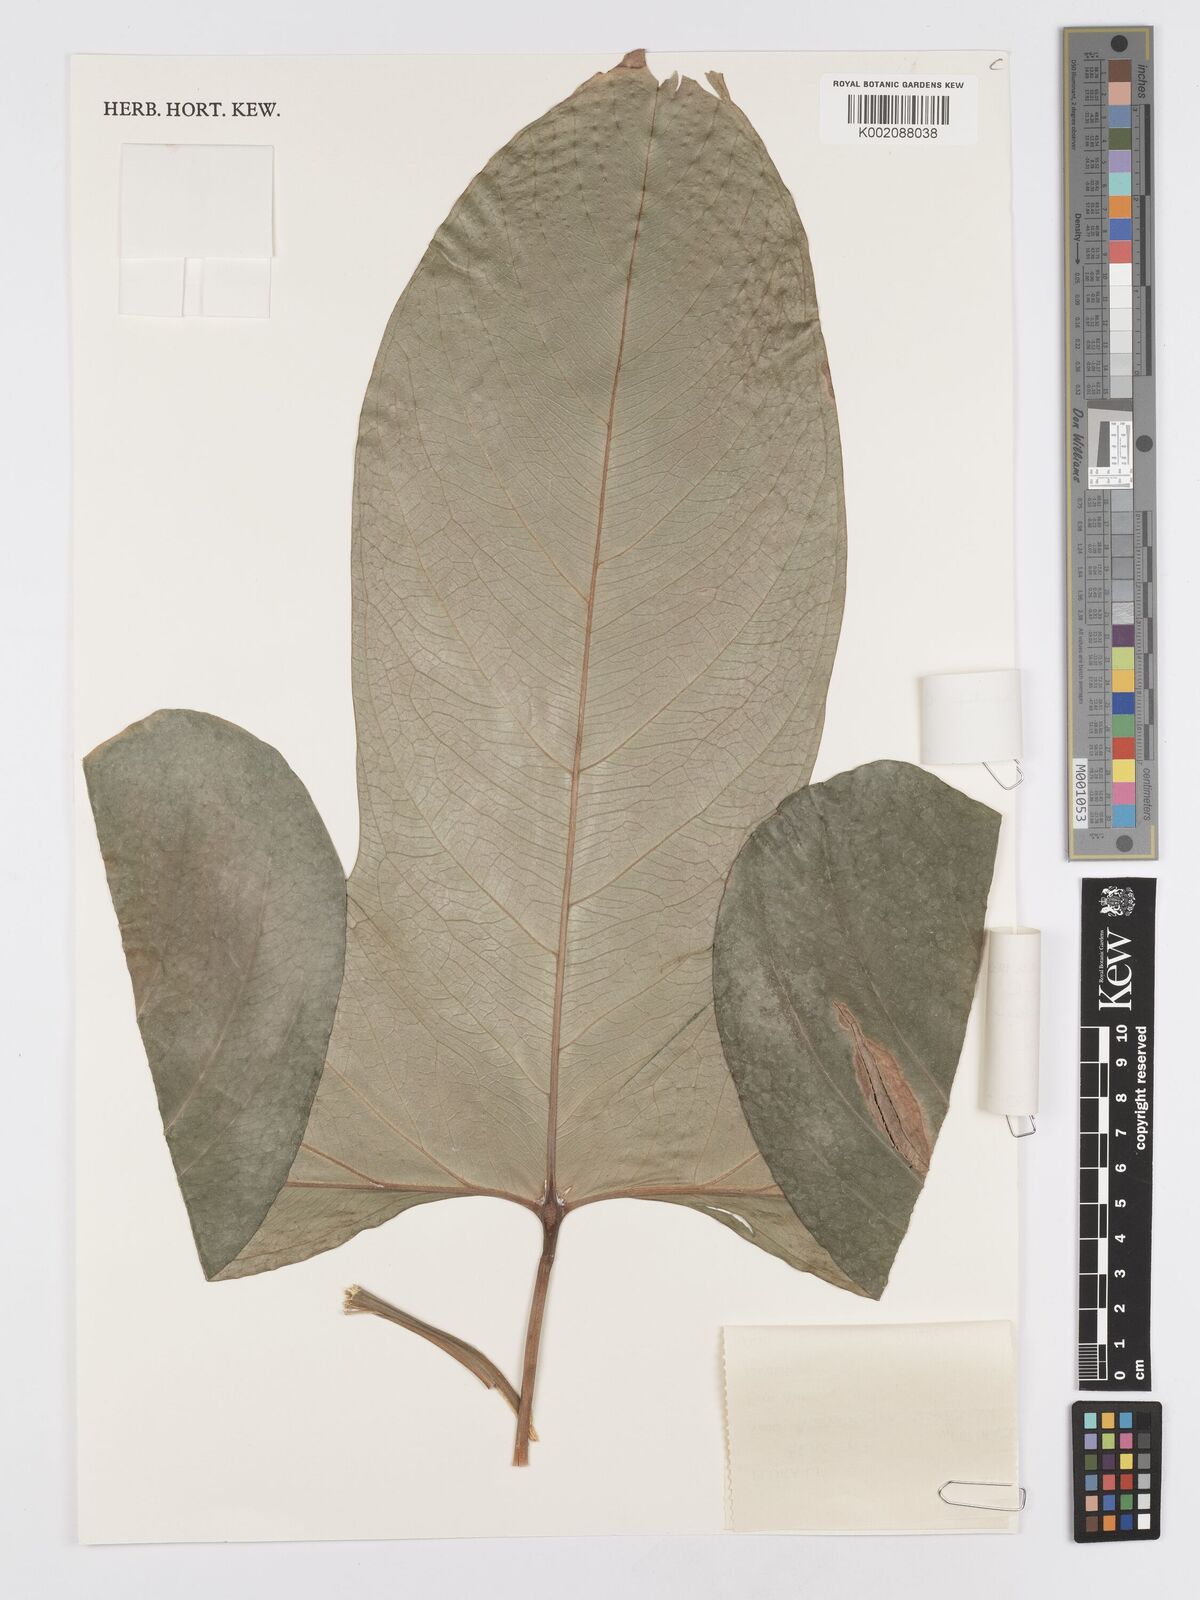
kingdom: Plantae
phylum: Tracheophyta
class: Liliopsida
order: Alismatales
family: Araceae
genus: Anthurium
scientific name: Anthurium signatum
